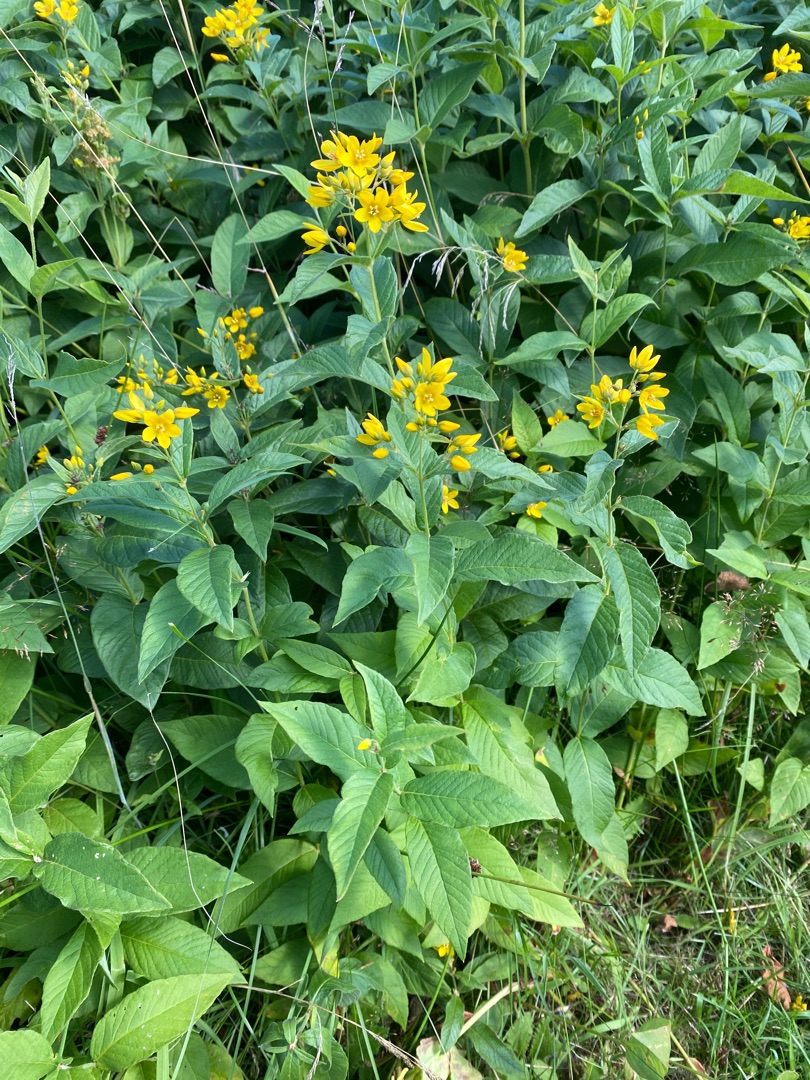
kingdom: Plantae
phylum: Tracheophyta
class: Magnoliopsida
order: Ericales
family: Primulaceae
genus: Lysimachia
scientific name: Lysimachia vulgaris
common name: Almindelig fredløs
